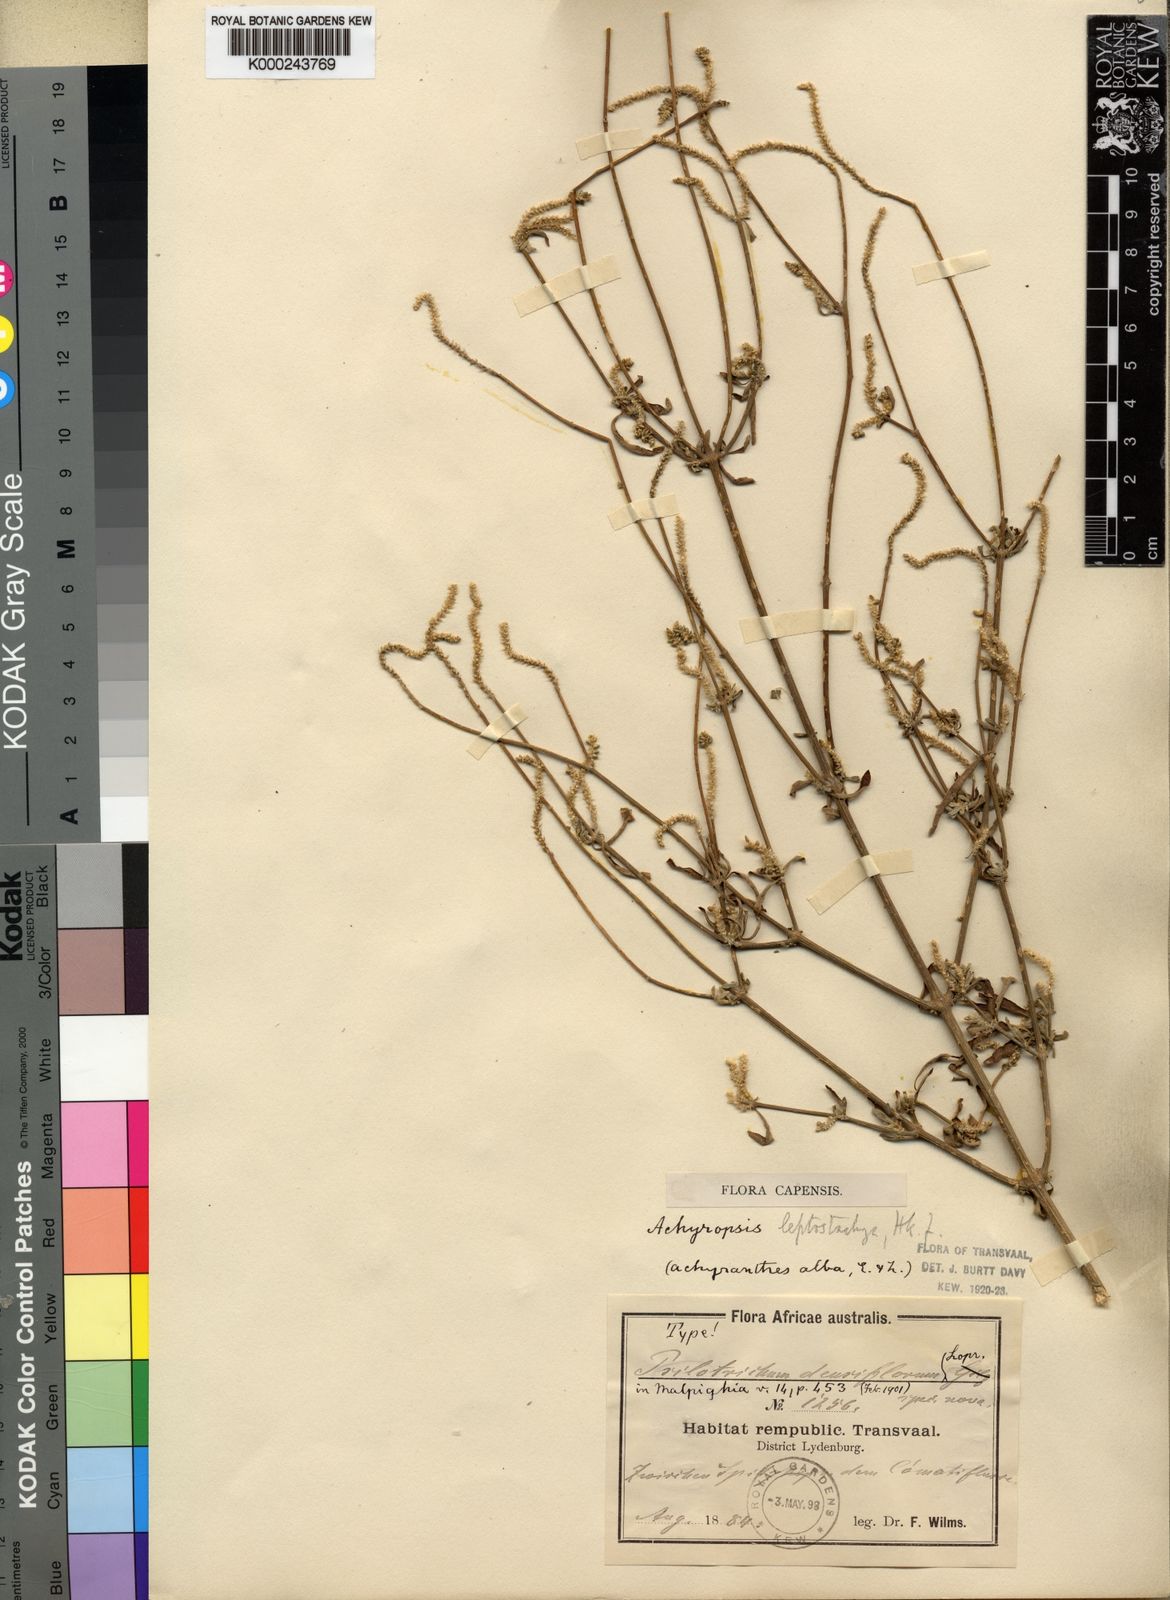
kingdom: Plantae
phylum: Tracheophyta
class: Magnoliopsida
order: Caryophyllales
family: Amaranthaceae
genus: Achyropsis
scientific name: Achyropsis
